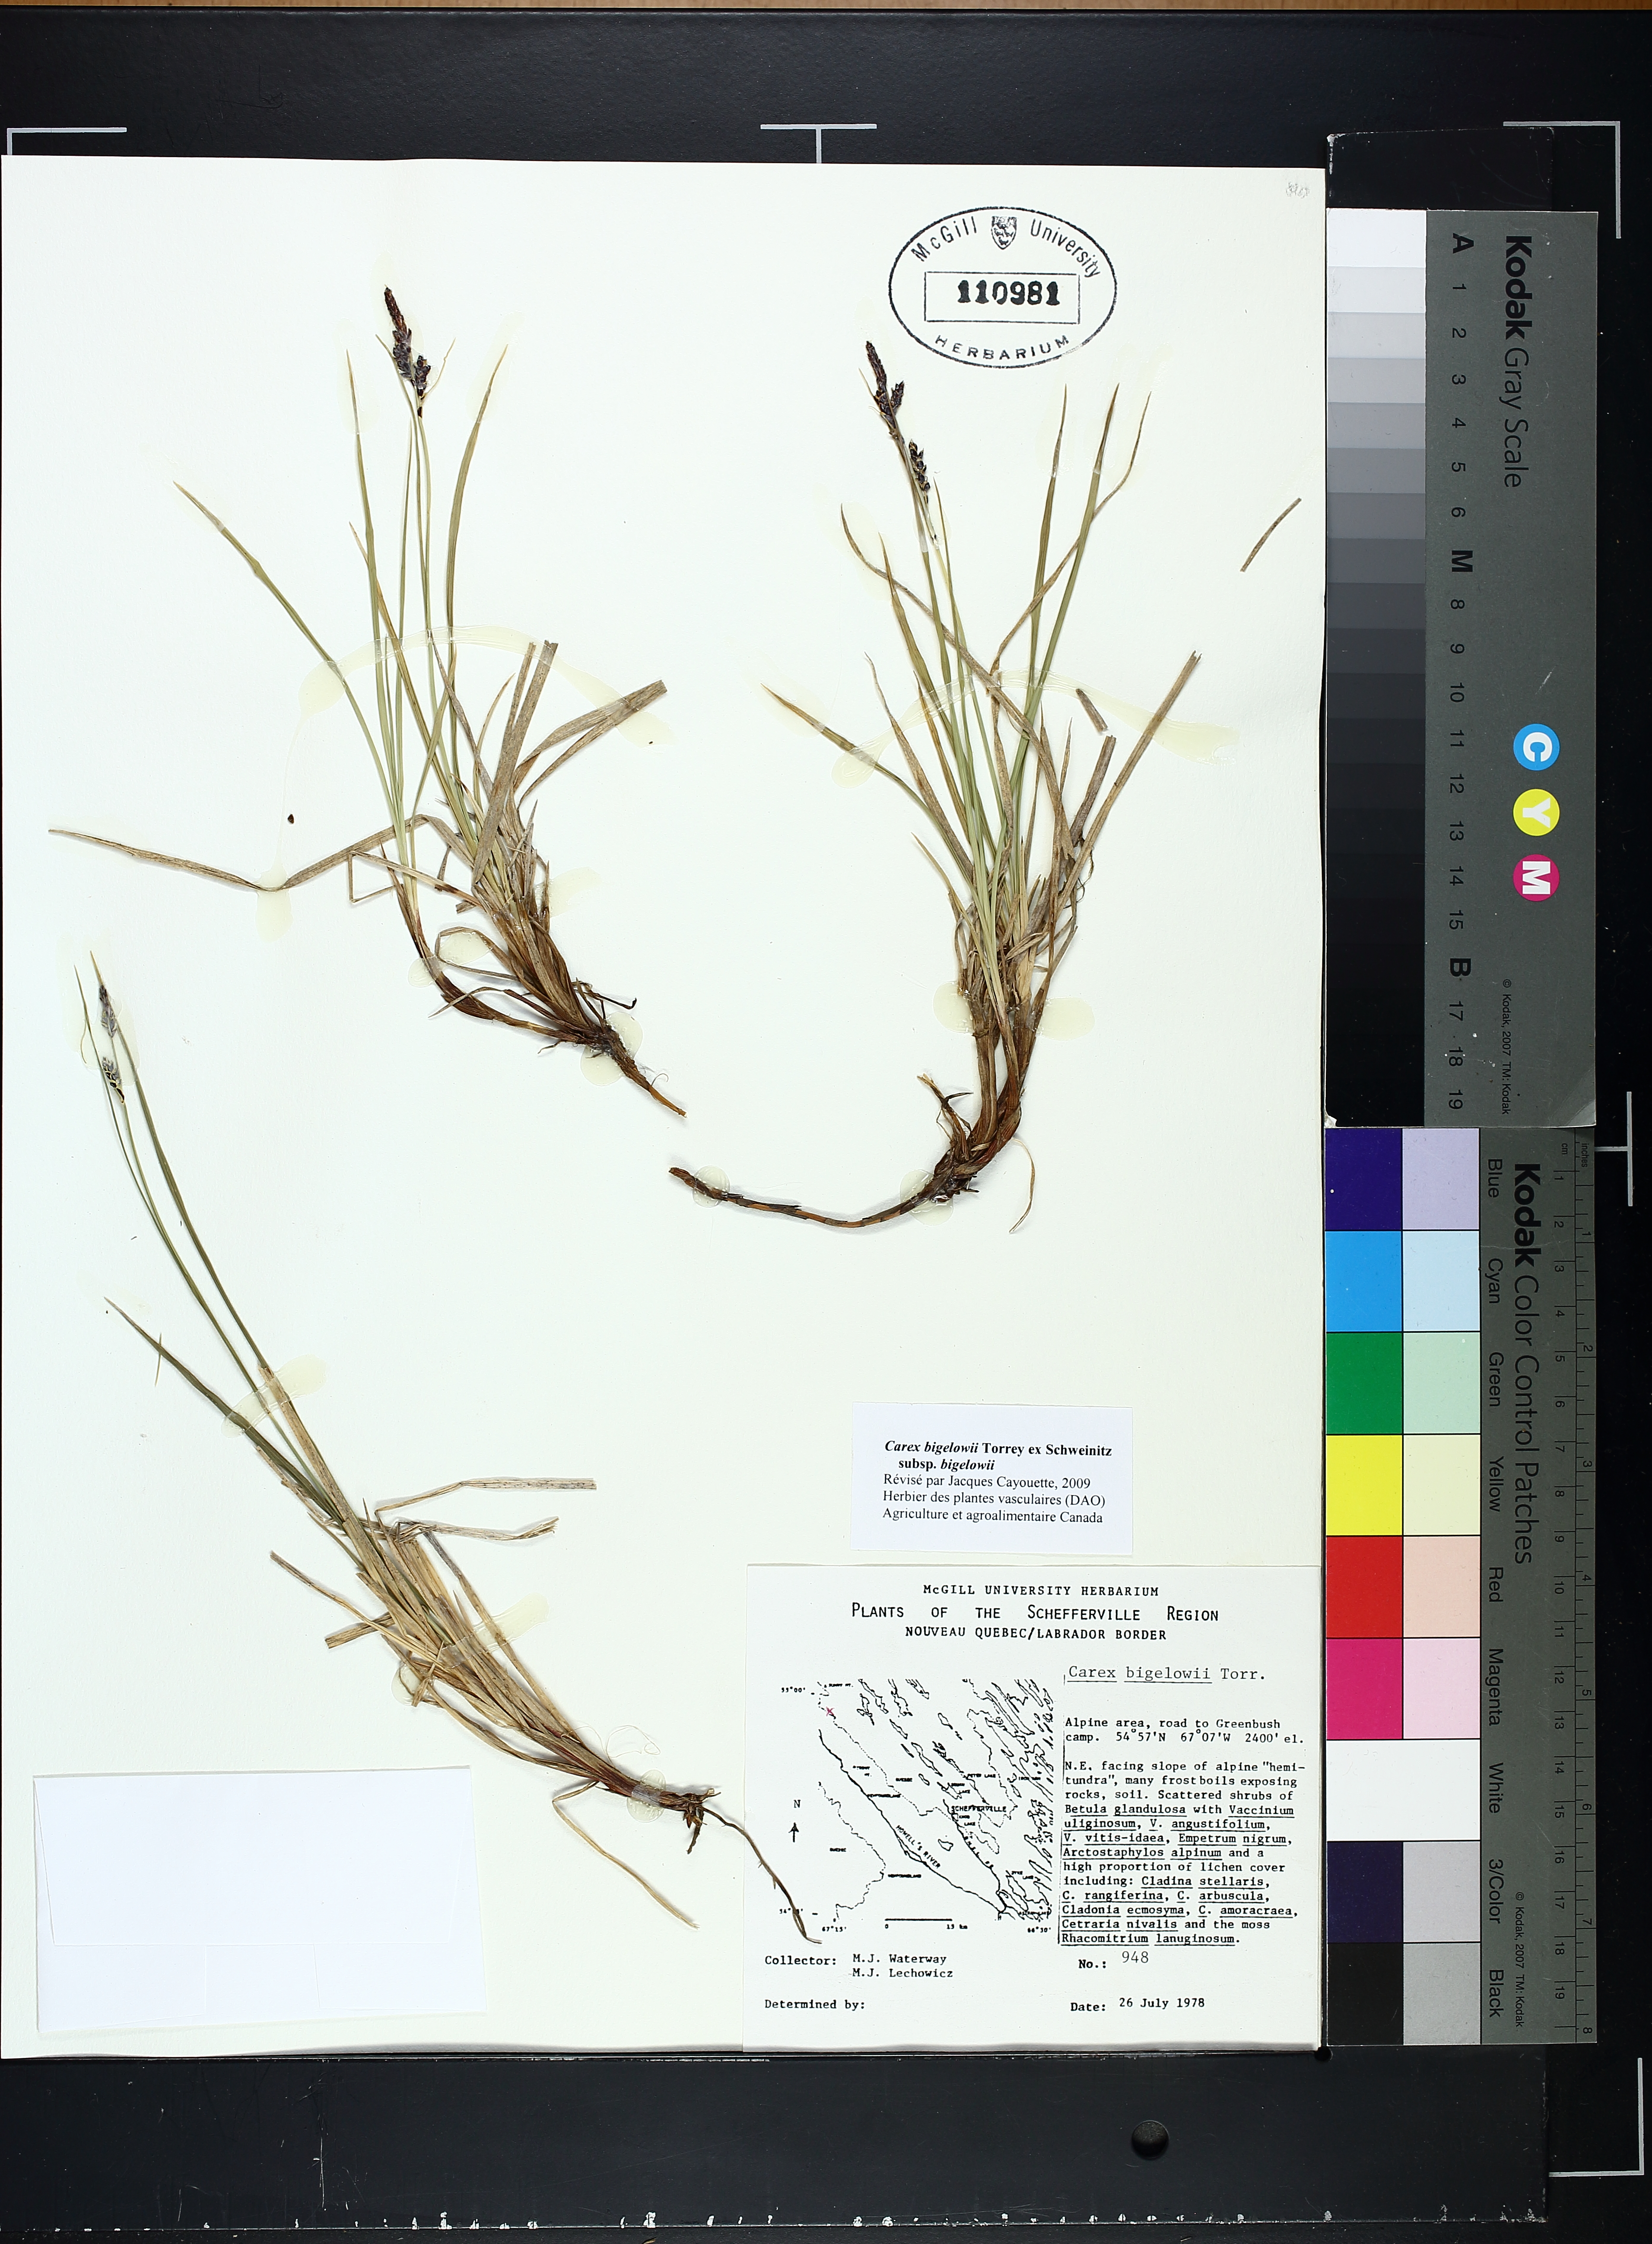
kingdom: Plantae
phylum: Tracheophyta
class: Liliopsida
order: Poales
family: Cyperaceae
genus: Carex
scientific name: Carex bigelowii
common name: Stiff sedge
